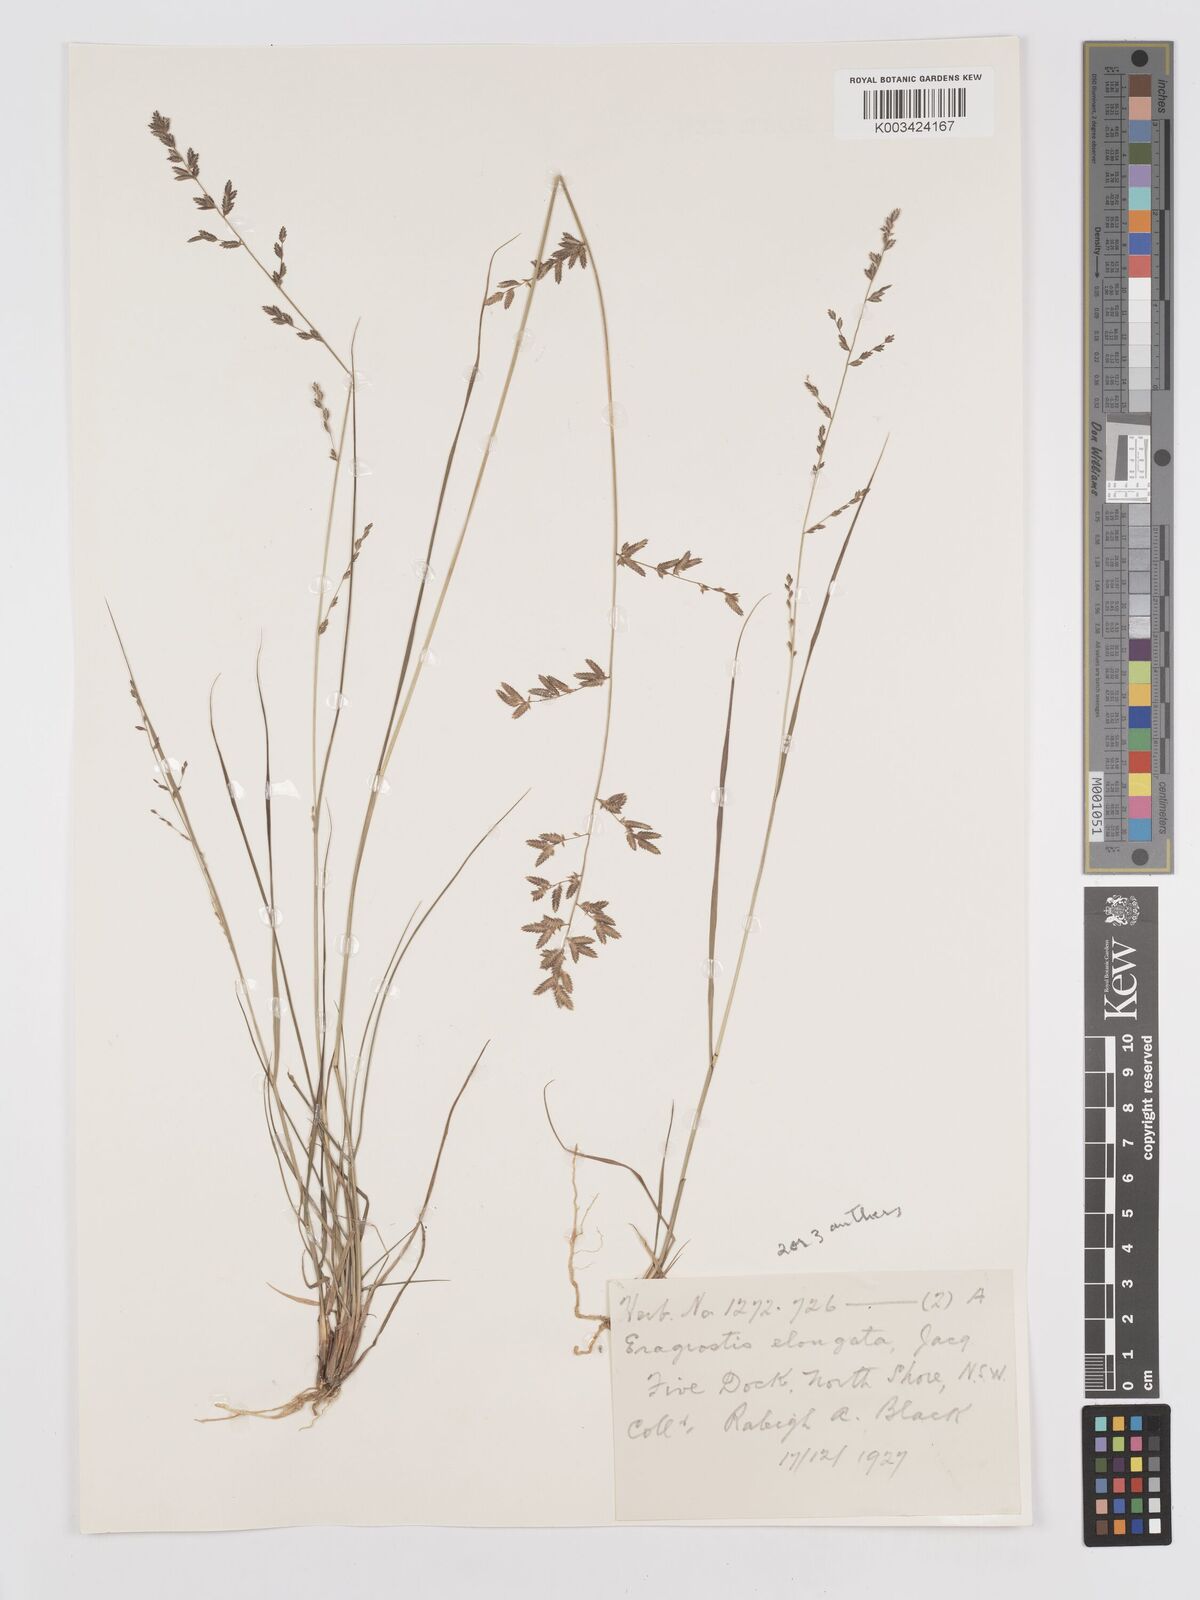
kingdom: Plantae
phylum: Tracheophyta
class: Liliopsida
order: Poales
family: Poaceae
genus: Eragrostis
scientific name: Eragrostis brownii
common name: Lovegrass
